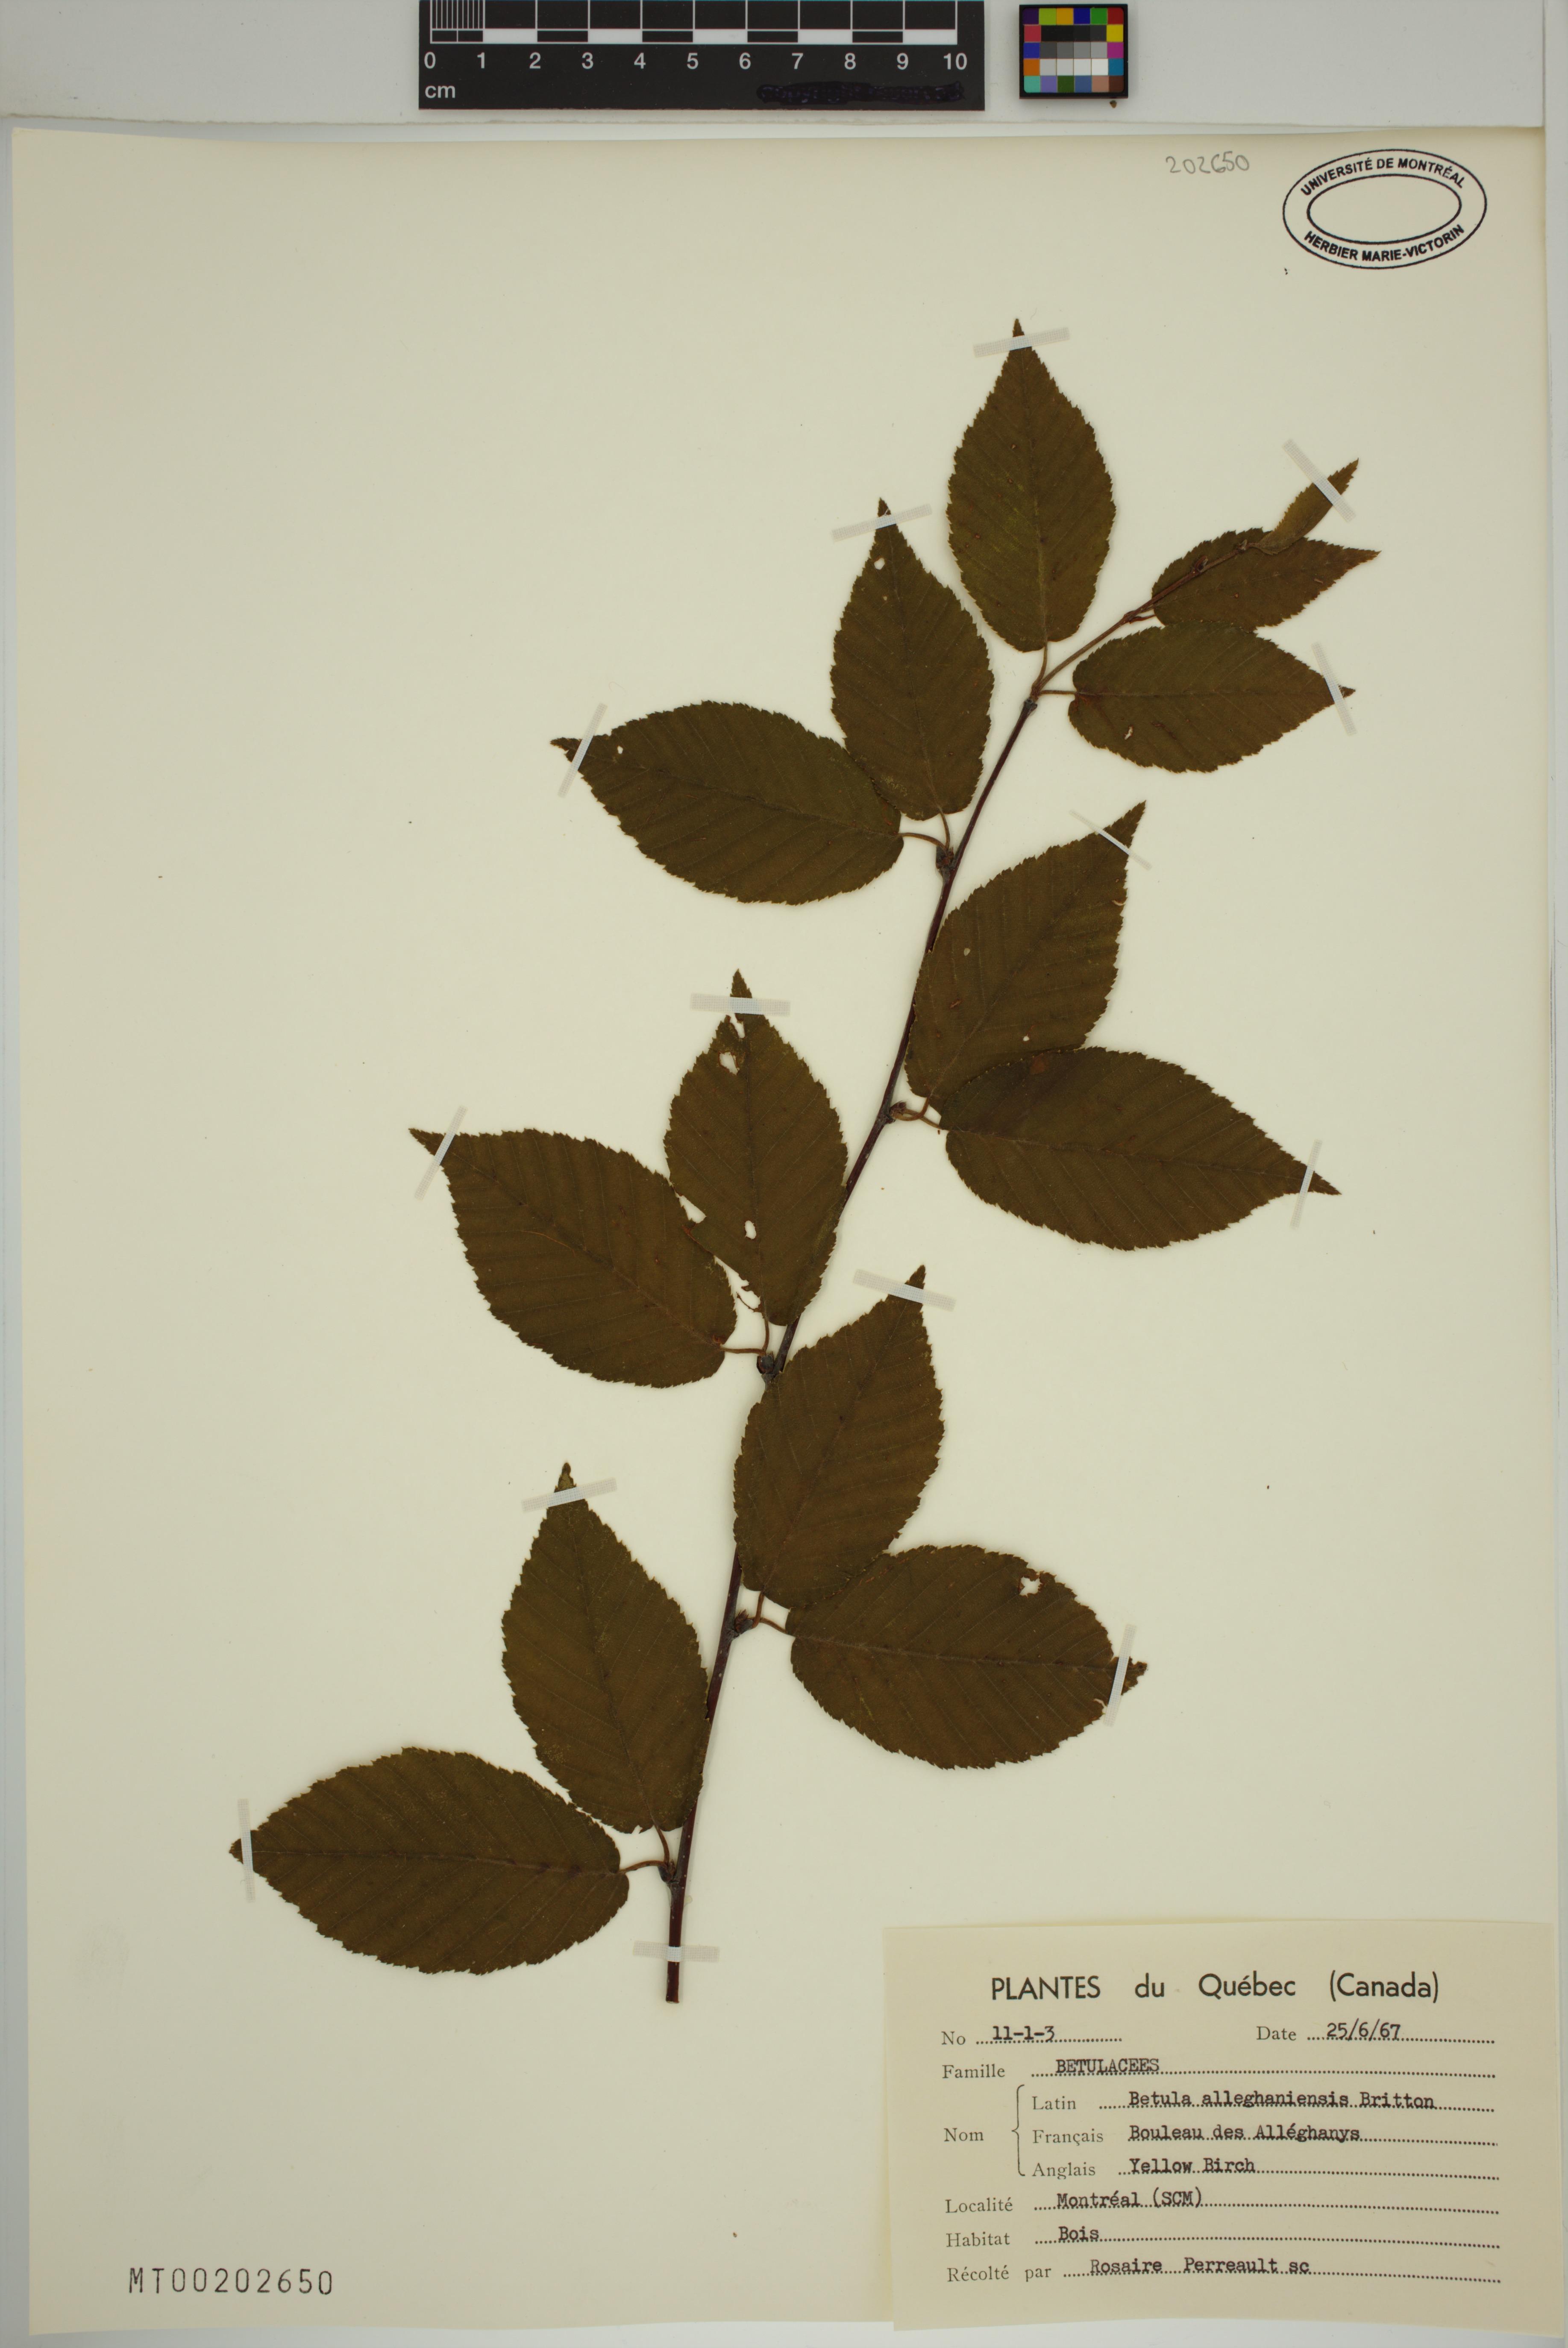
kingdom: Plantae
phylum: Tracheophyta
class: Magnoliopsida
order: Fagales
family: Betulaceae
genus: Betula
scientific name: Betula alleghaniensis
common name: Yellow birch
